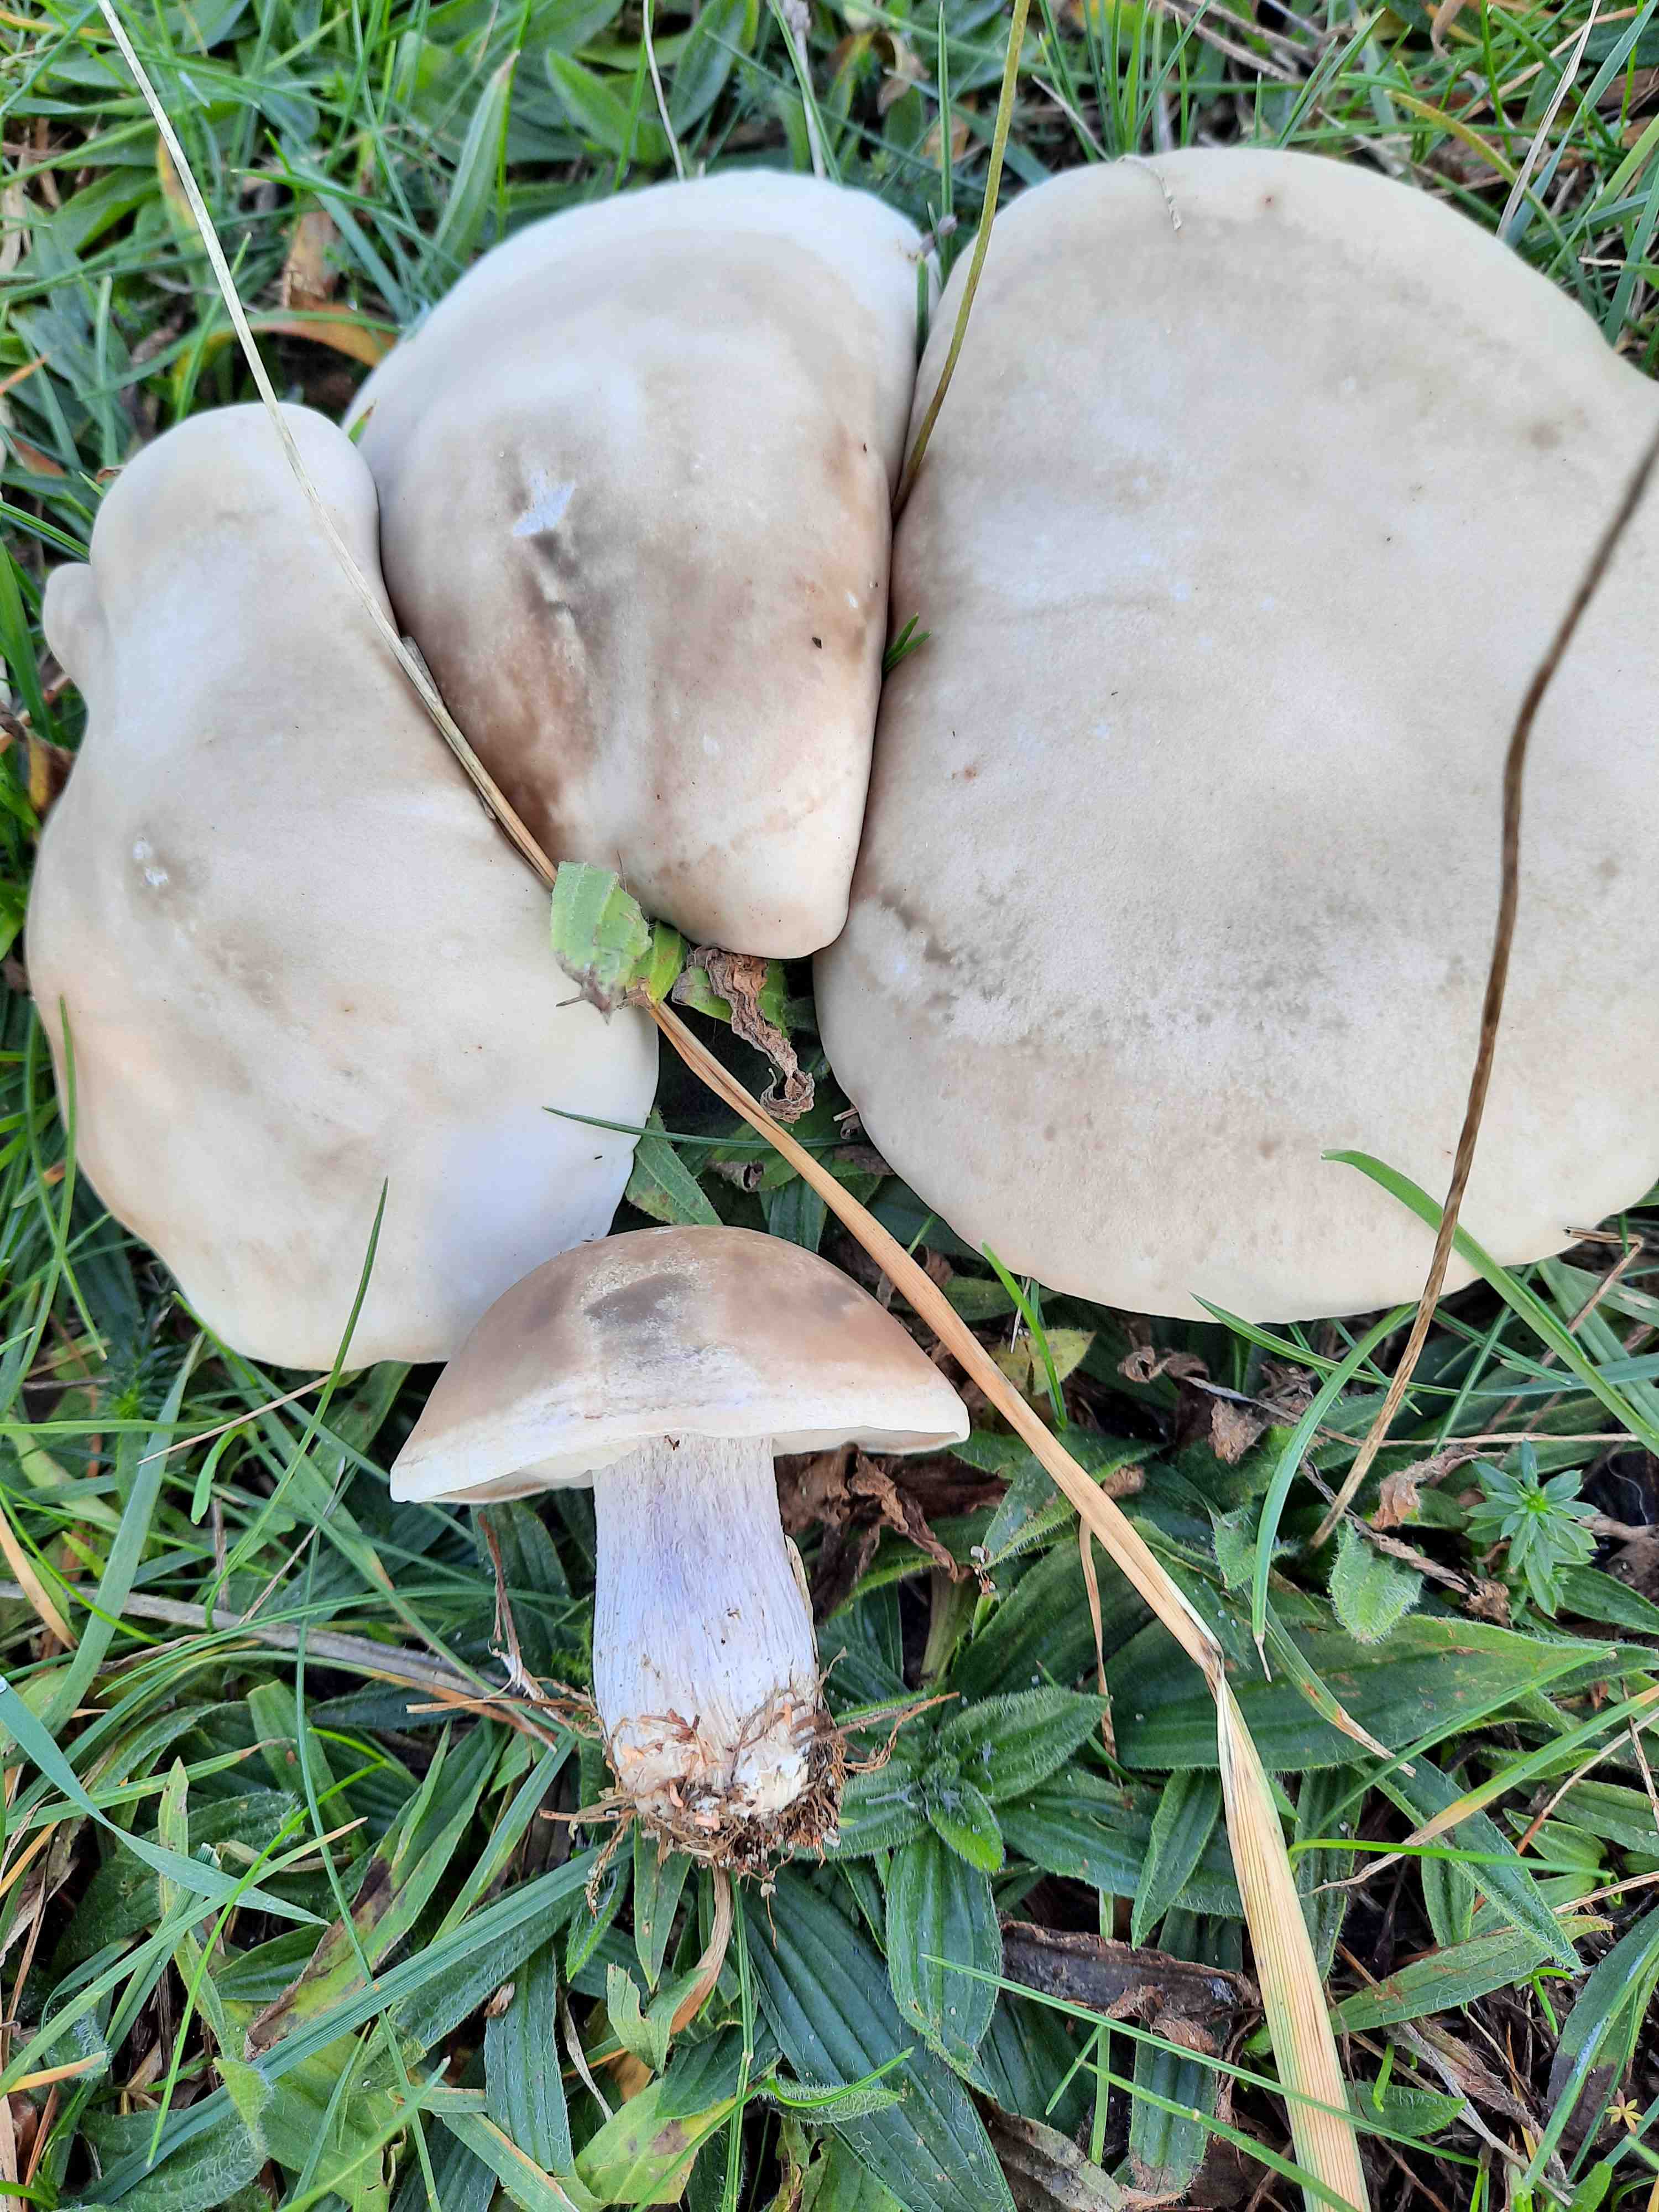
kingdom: Fungi
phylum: Basidiomycota
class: Agaricomycetes
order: Agaricales
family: Tricholomataceae
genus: Lepista
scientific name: Lepista personata
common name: bleg hekseringshat
